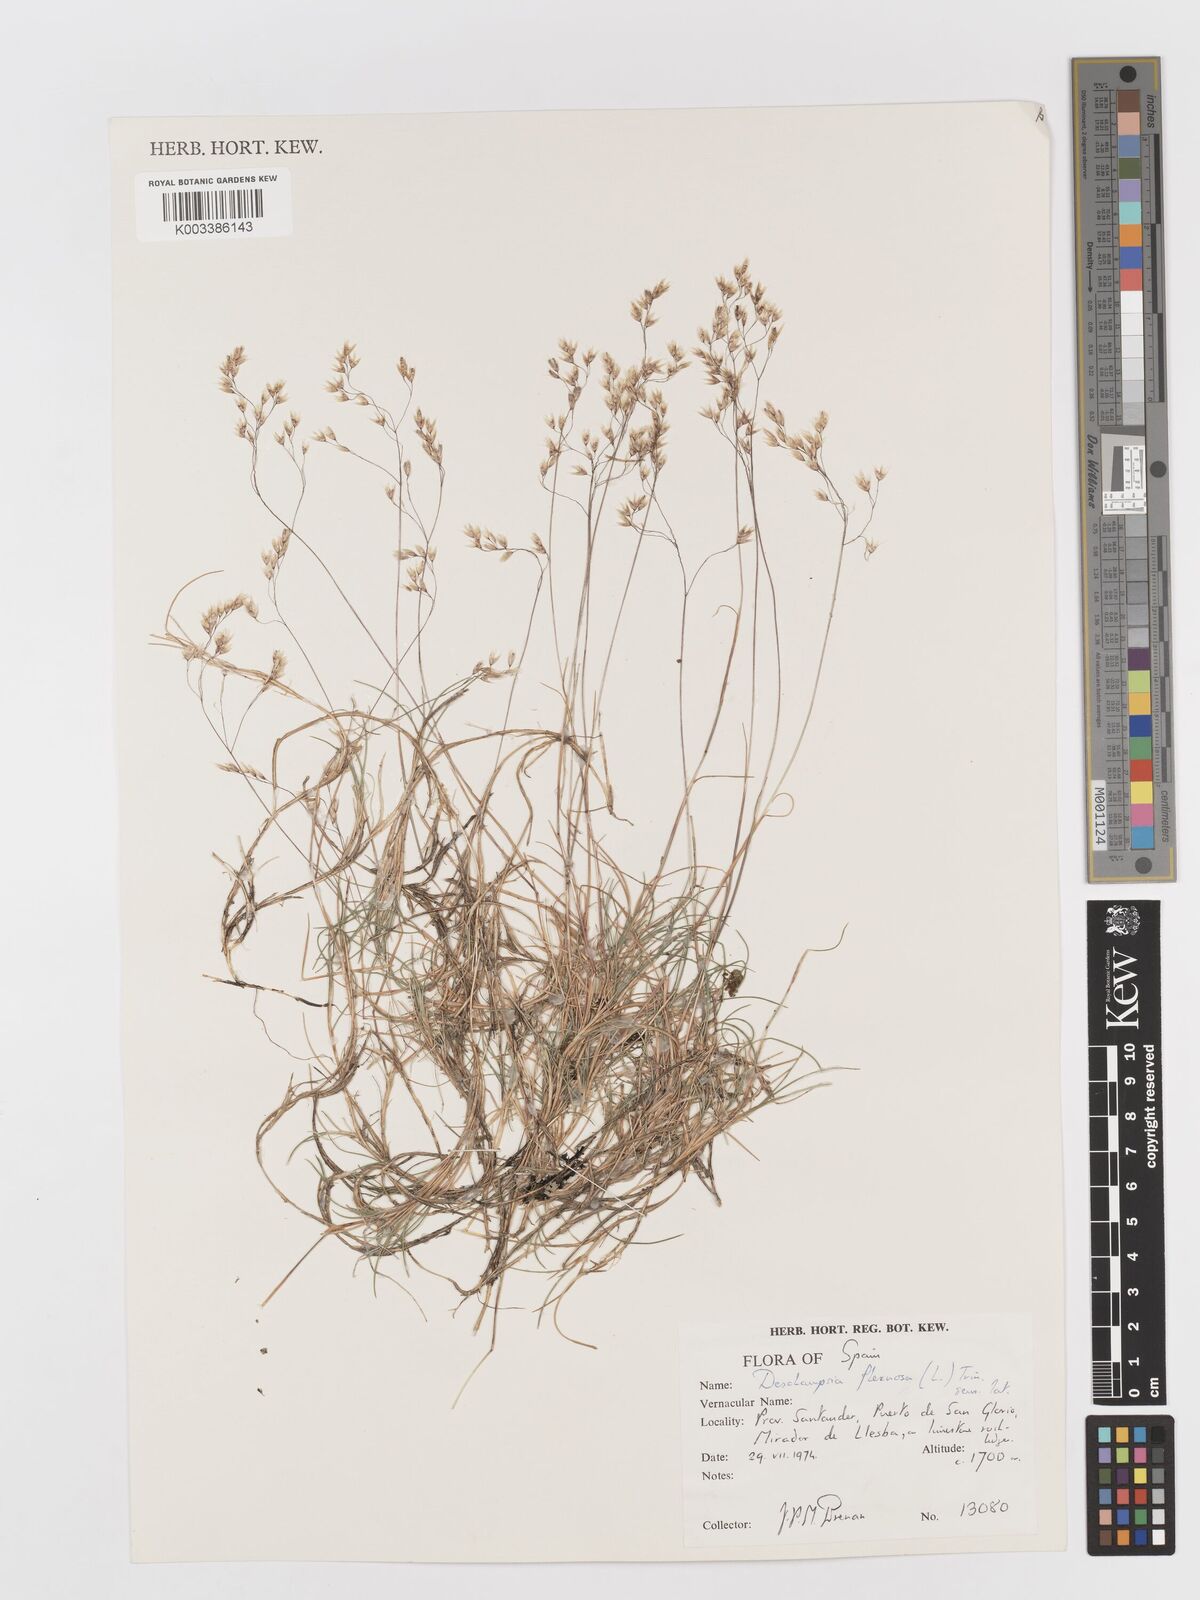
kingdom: Plantae
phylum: Tracheophyta
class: Liliopsida
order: Poales
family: Poaceae
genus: Avenella
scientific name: Avenella flexuosa
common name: Wavy hairgrass
